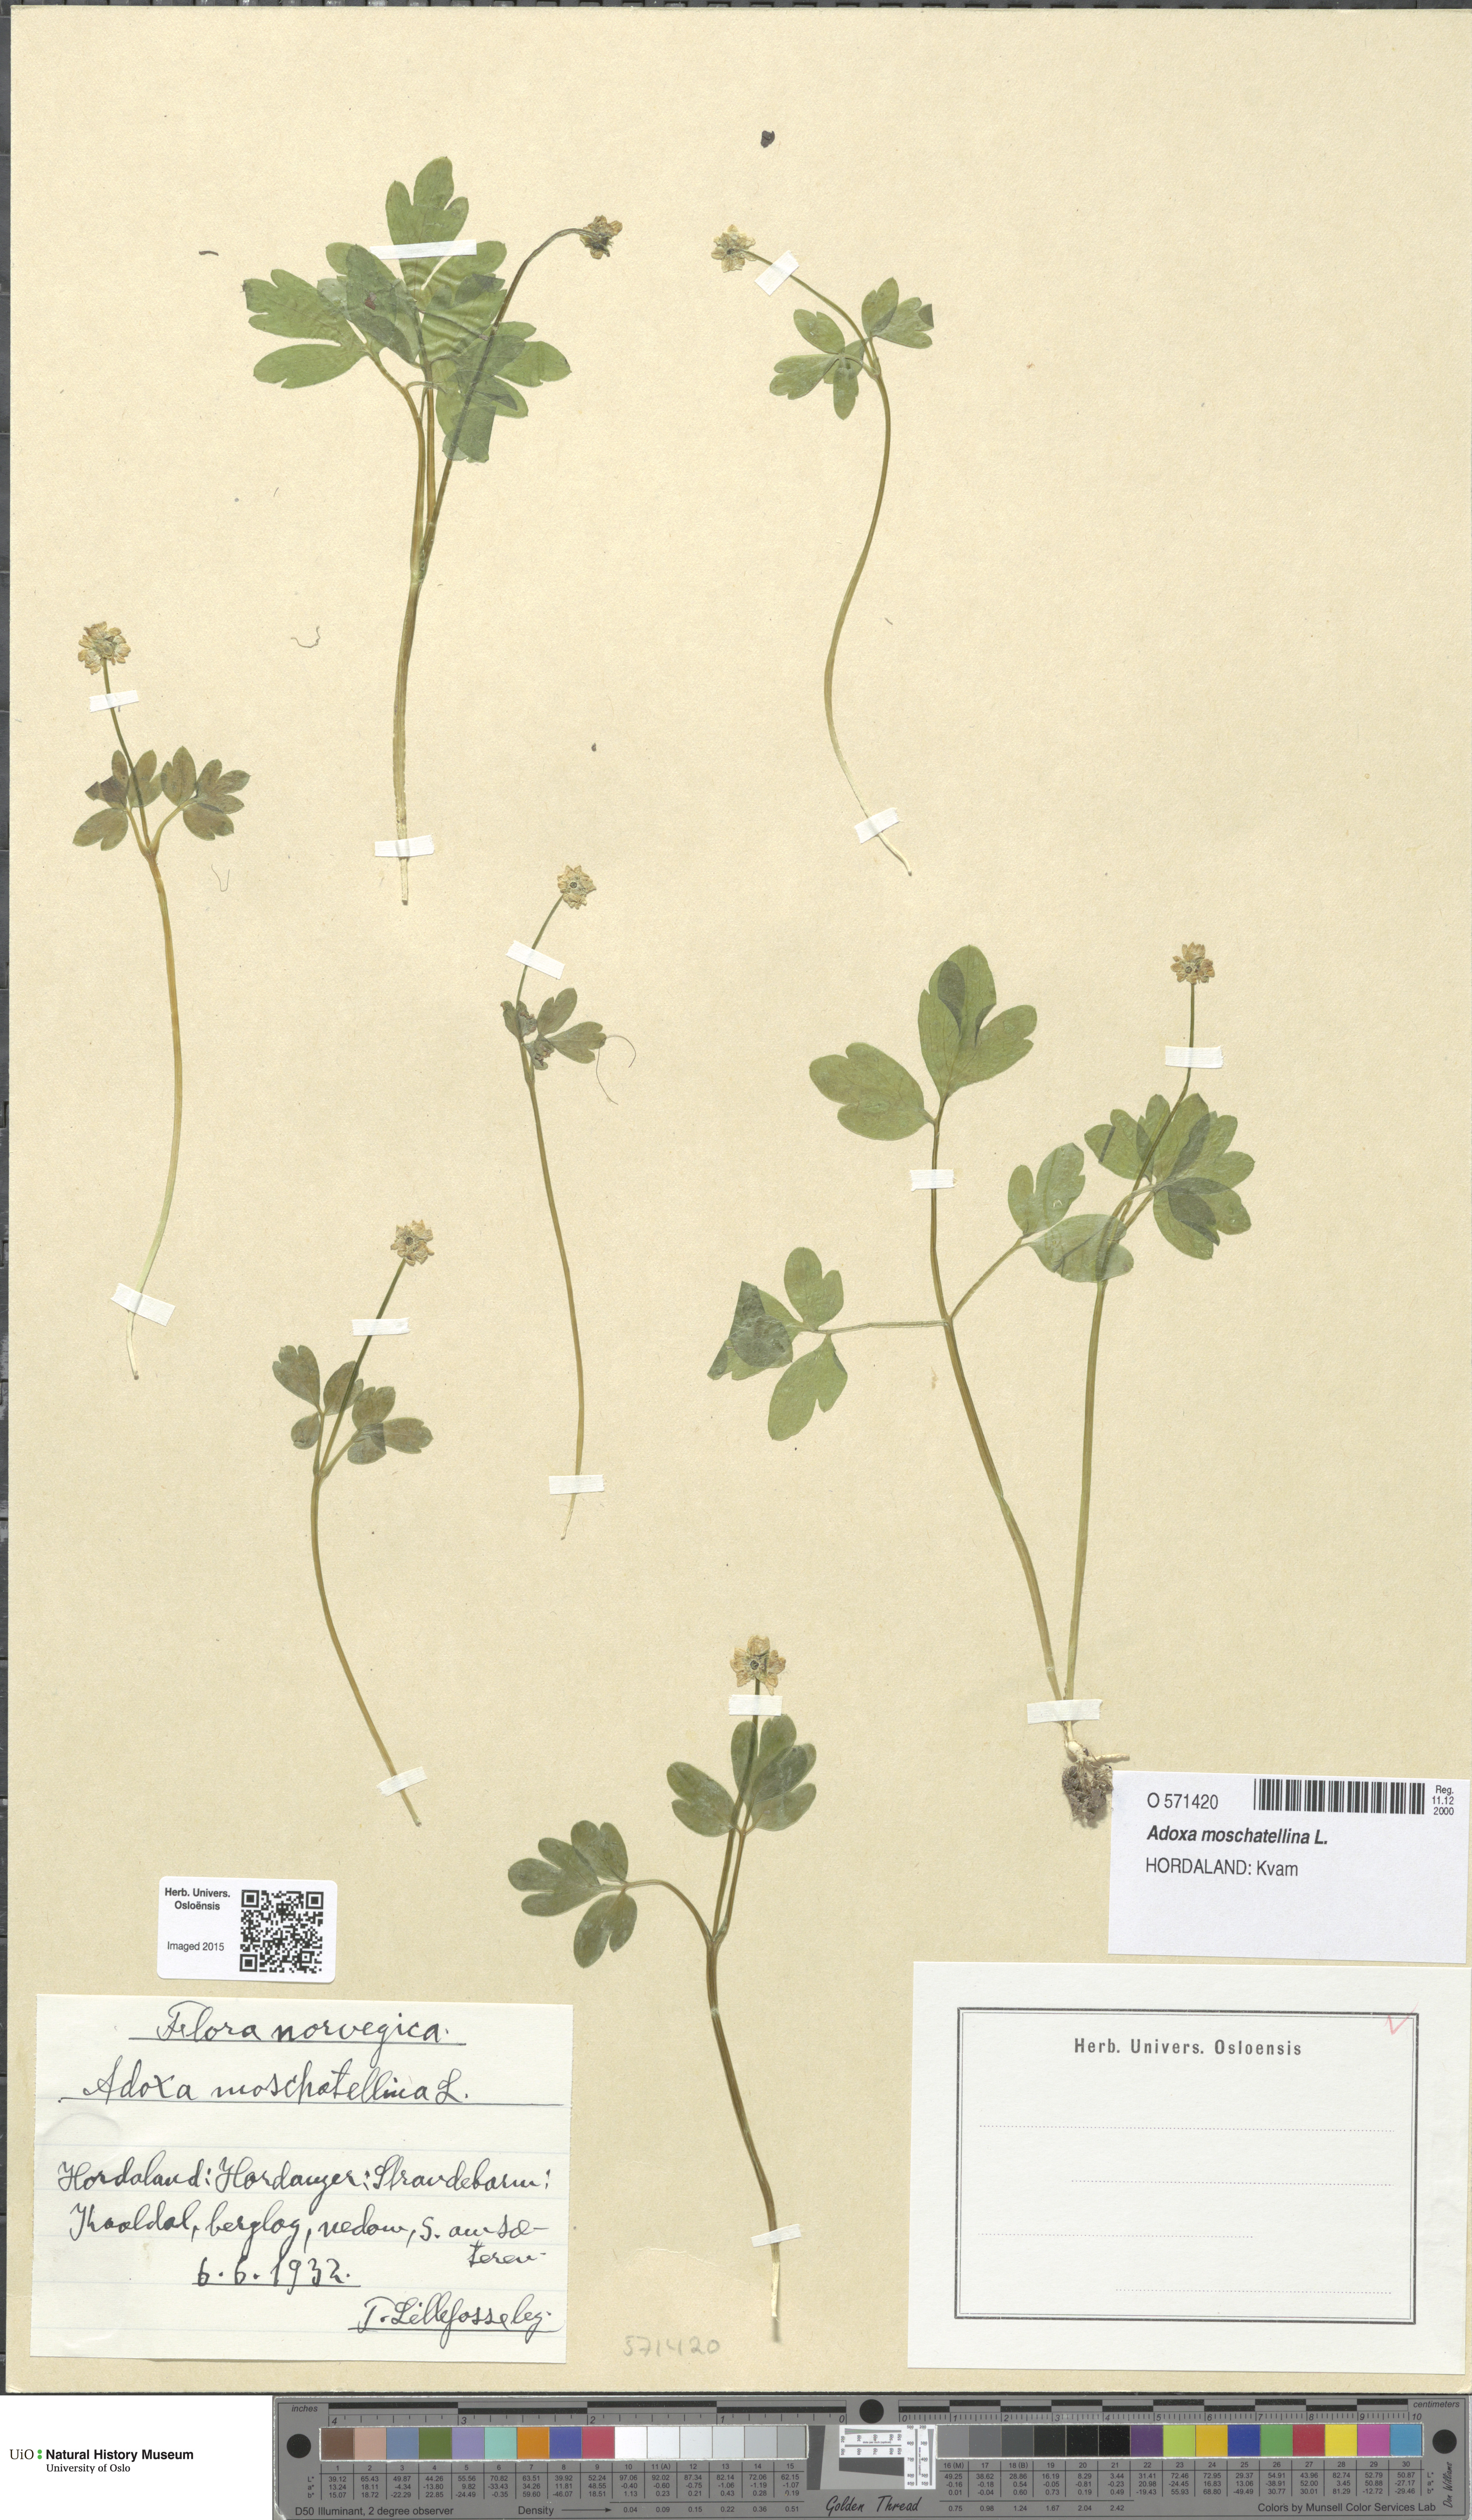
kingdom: Plantae
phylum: Tracheophyta
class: Magnoliopsida
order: Dipsacales
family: Viburnaceae
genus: Adoxa
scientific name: Adoxa moschatellina
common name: Moschatel
